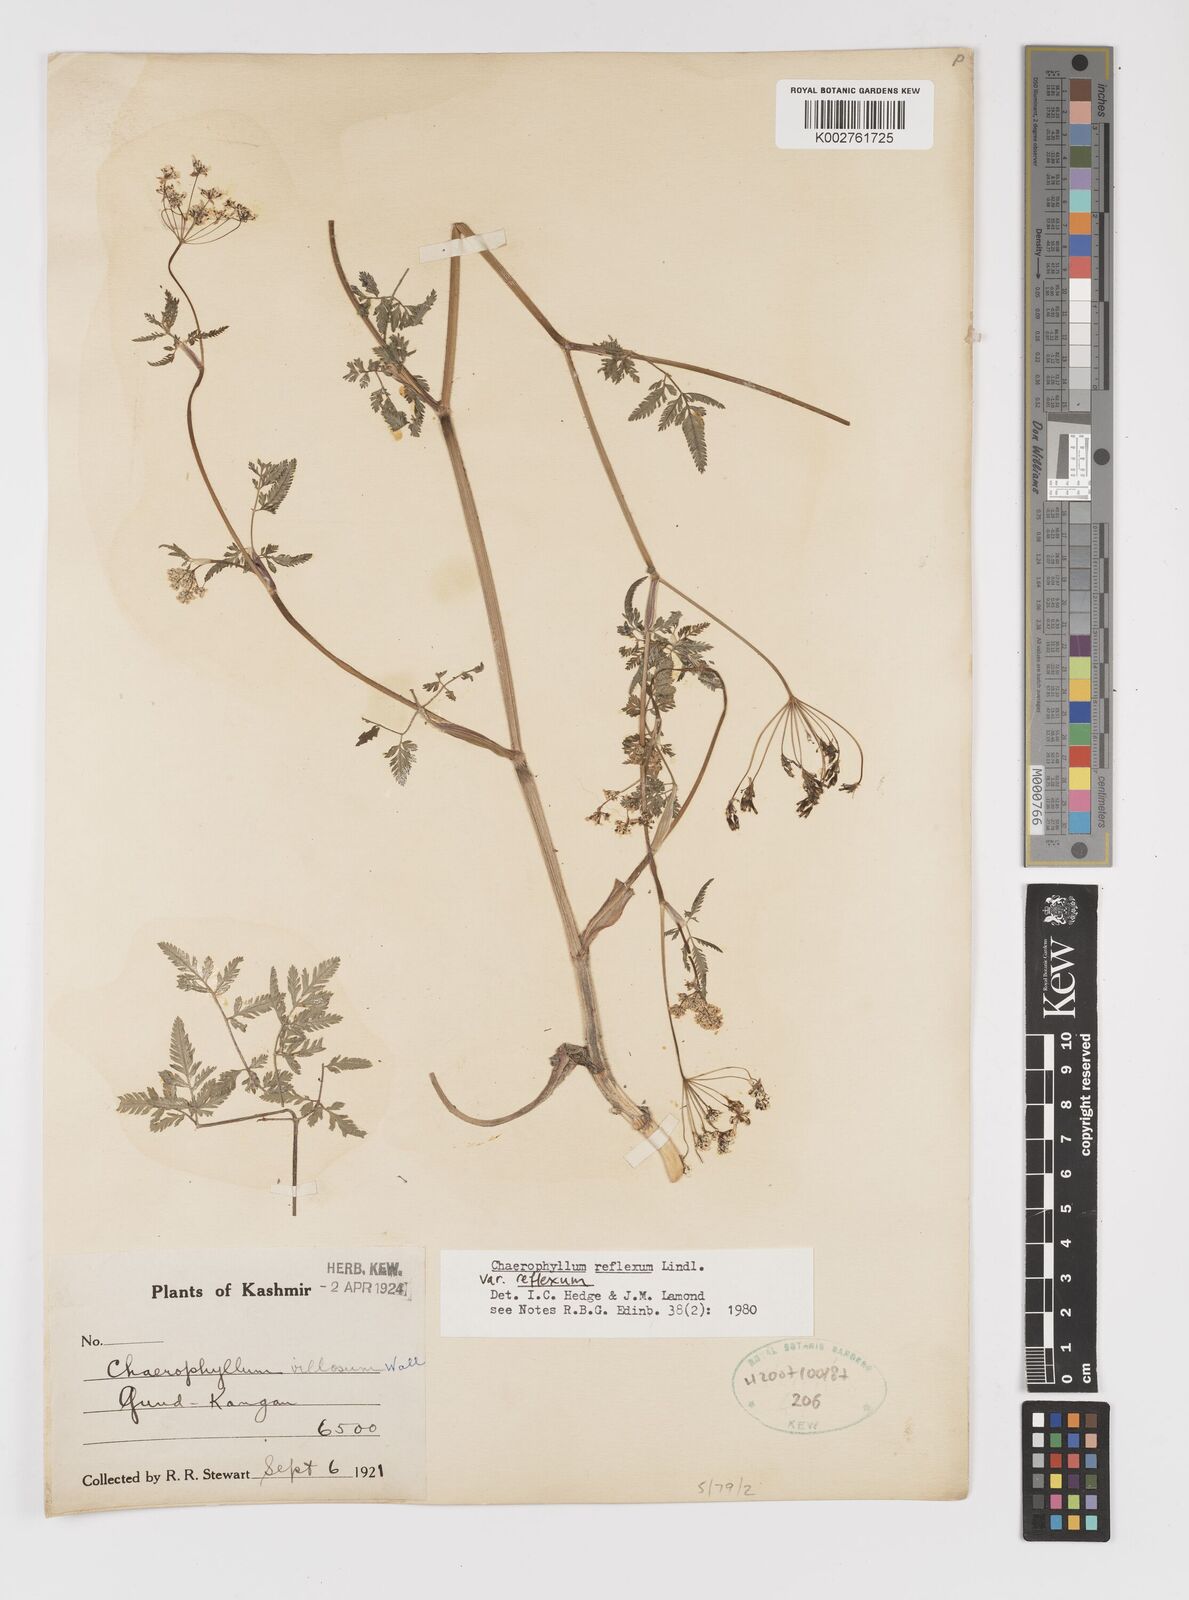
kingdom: Plantae
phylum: Tracheophyta
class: Magnoliopsida
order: Apiales
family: Apiaceae
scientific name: Apiaceae
